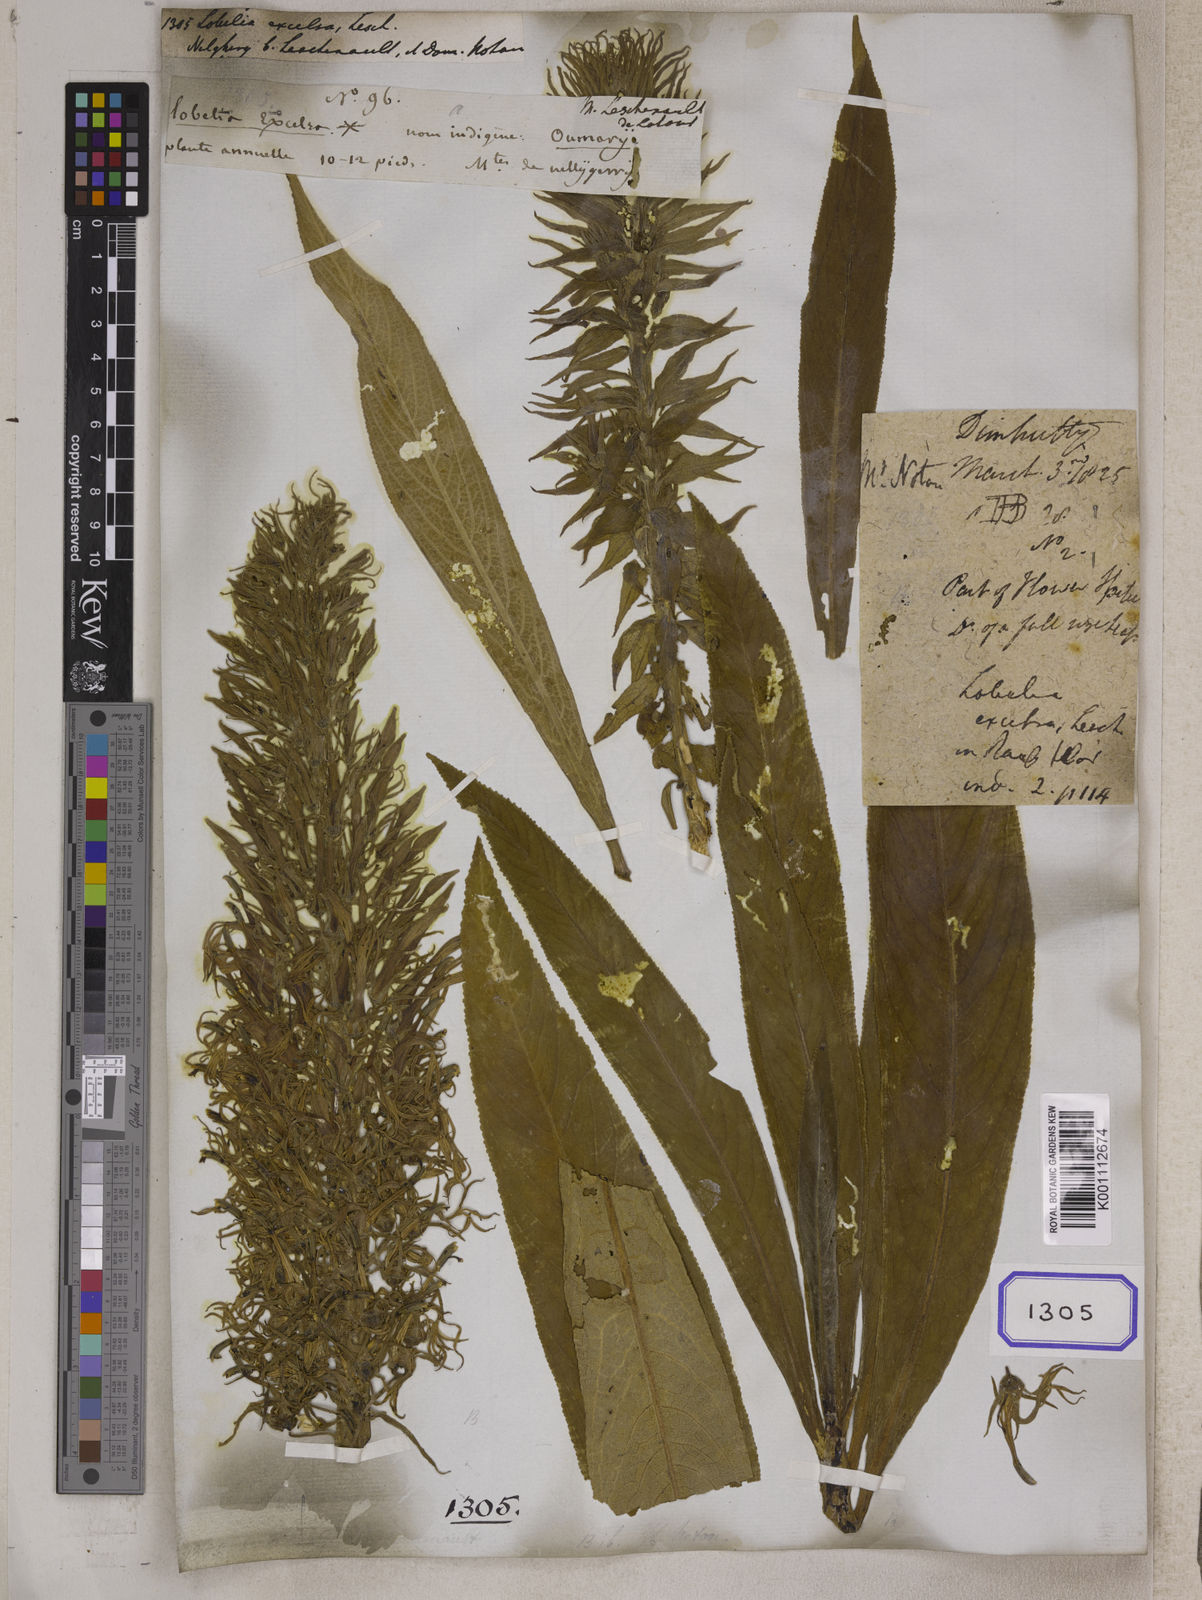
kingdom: Plantae
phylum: Tracheophyta
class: Magnoliopsida
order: Asterales
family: Campanulaceae
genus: Lobelia
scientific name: Lobelia
